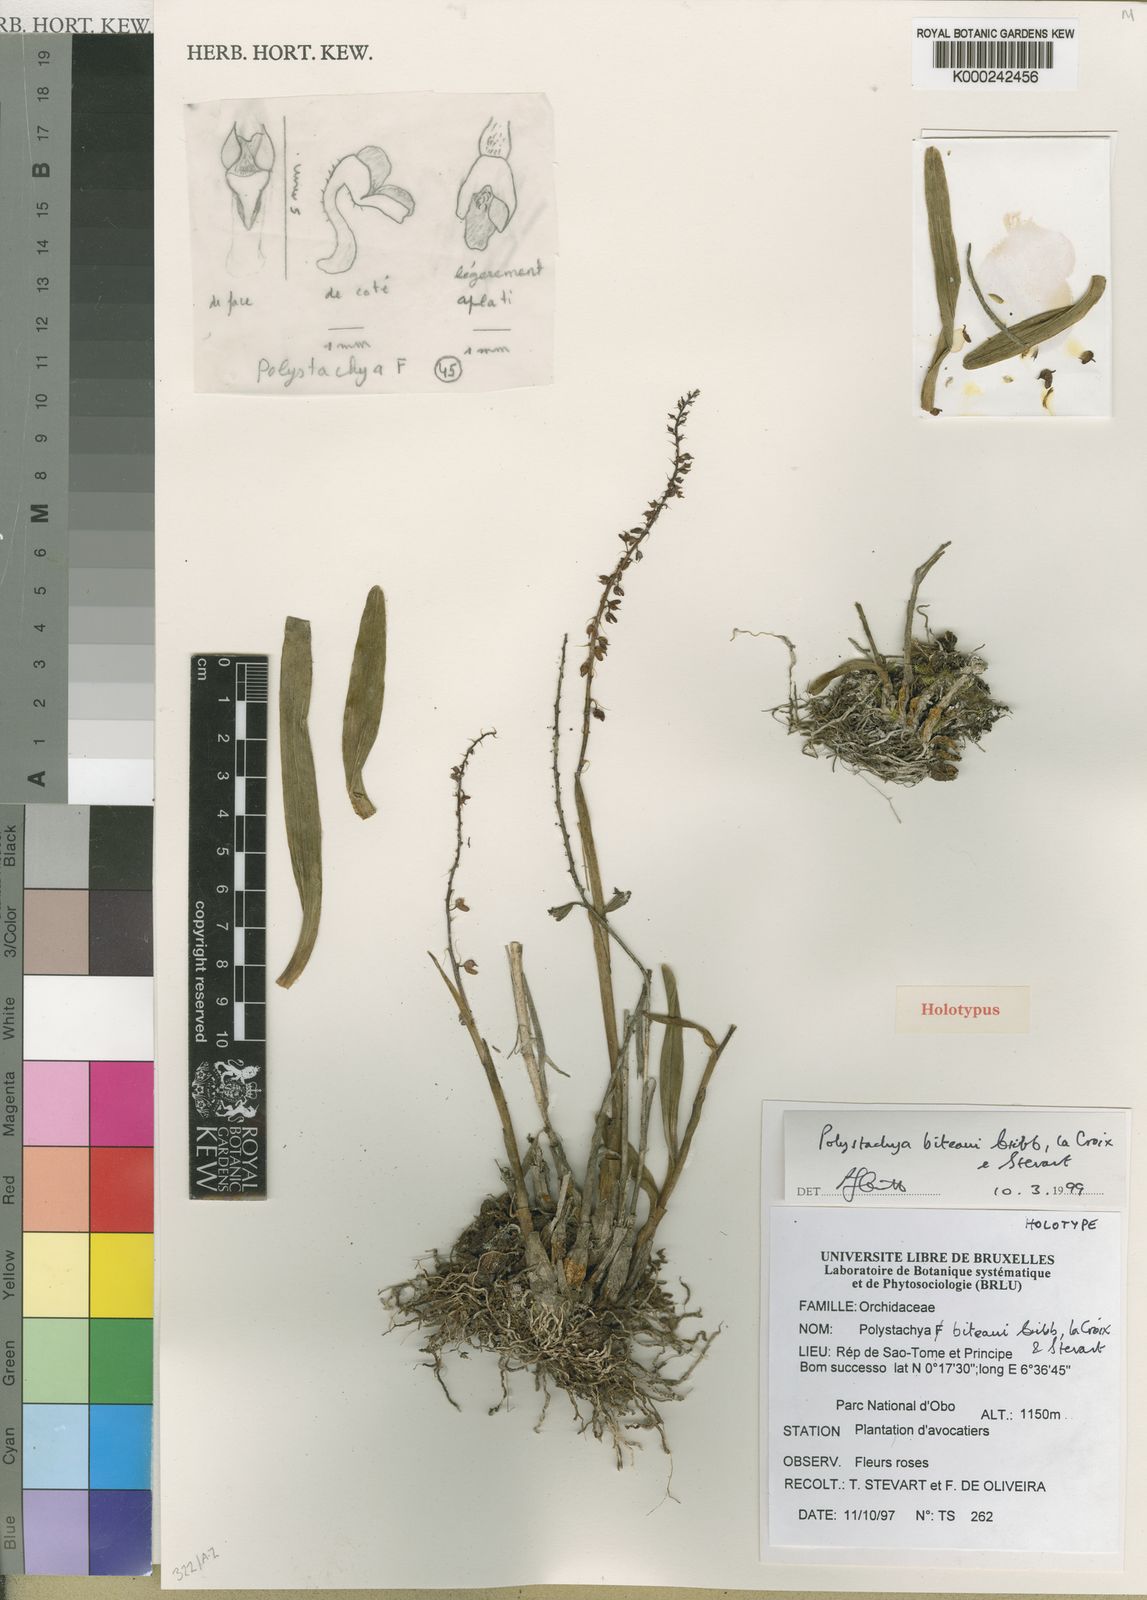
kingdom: Plantae
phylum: Tracheophyta
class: Liliopsida
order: Asparagales
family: Orchidaceae
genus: Polystachya
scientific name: Polystachya
